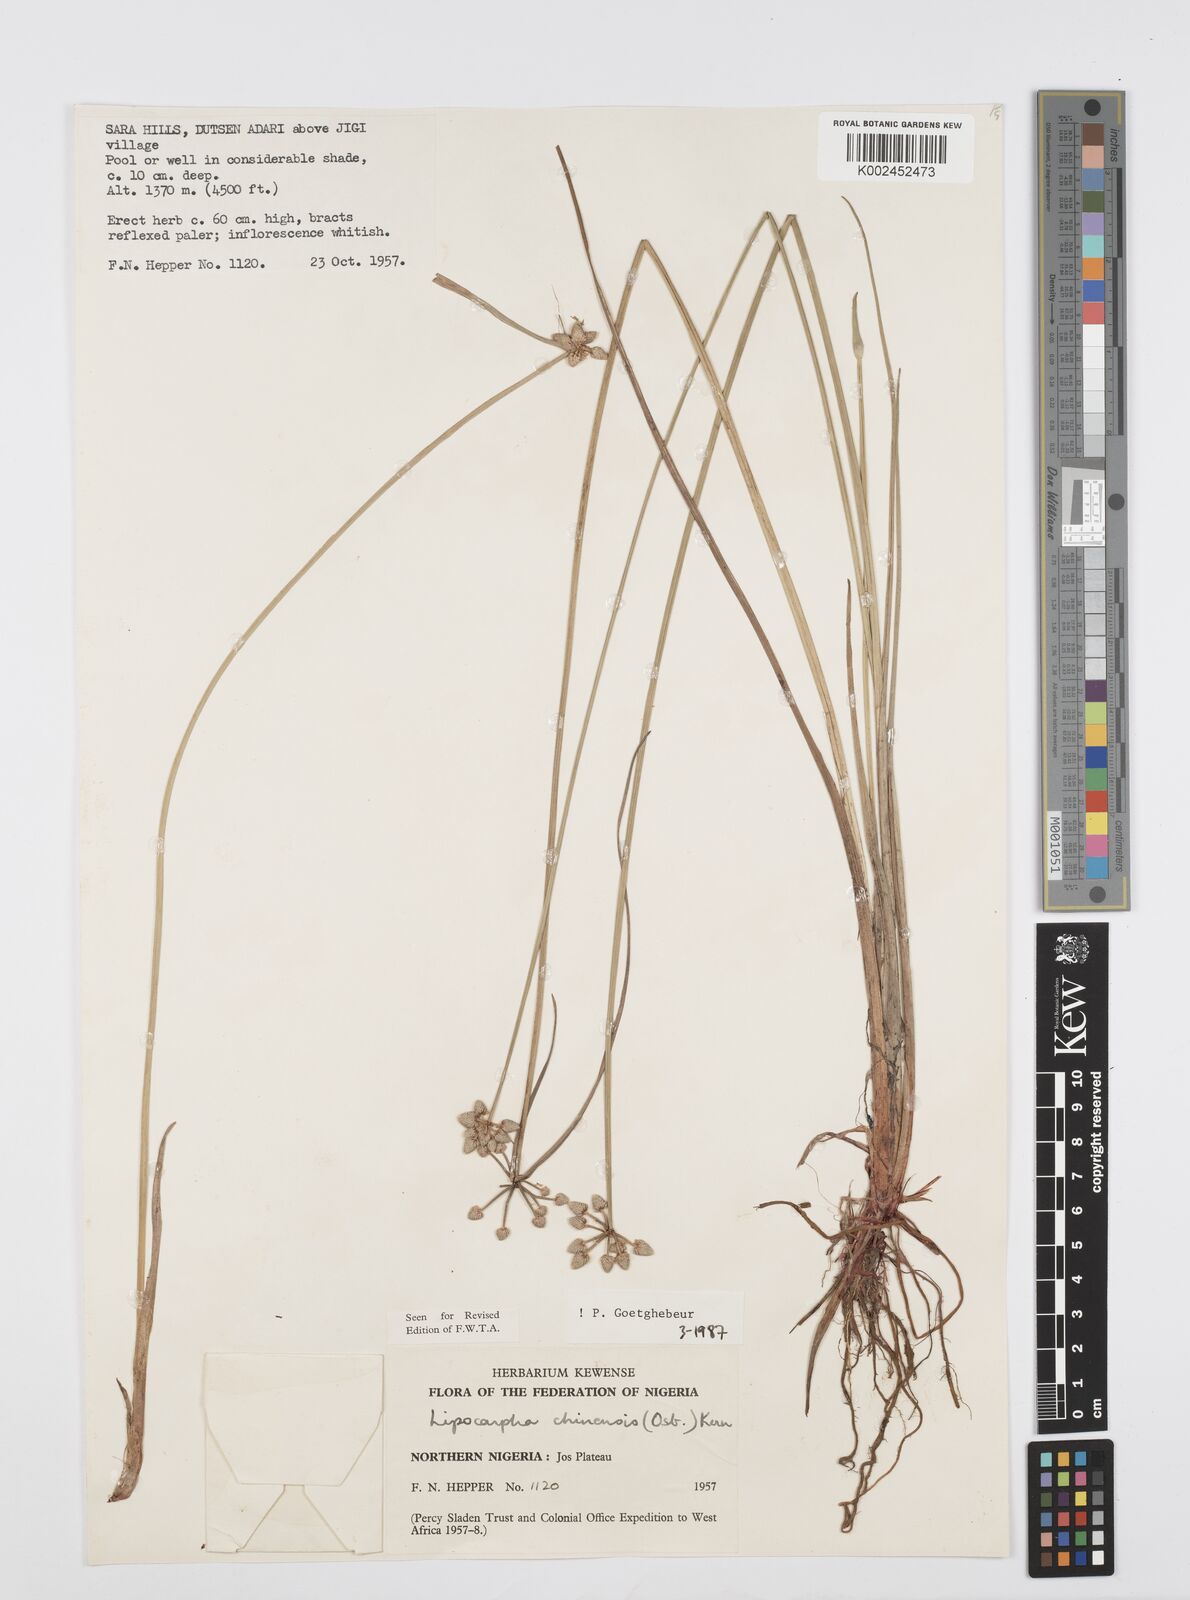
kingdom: Plantae
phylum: Tracheophyta
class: Liliopsida
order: Poales
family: Cyperaceae
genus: Cyperus
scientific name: Cyperus albescens
